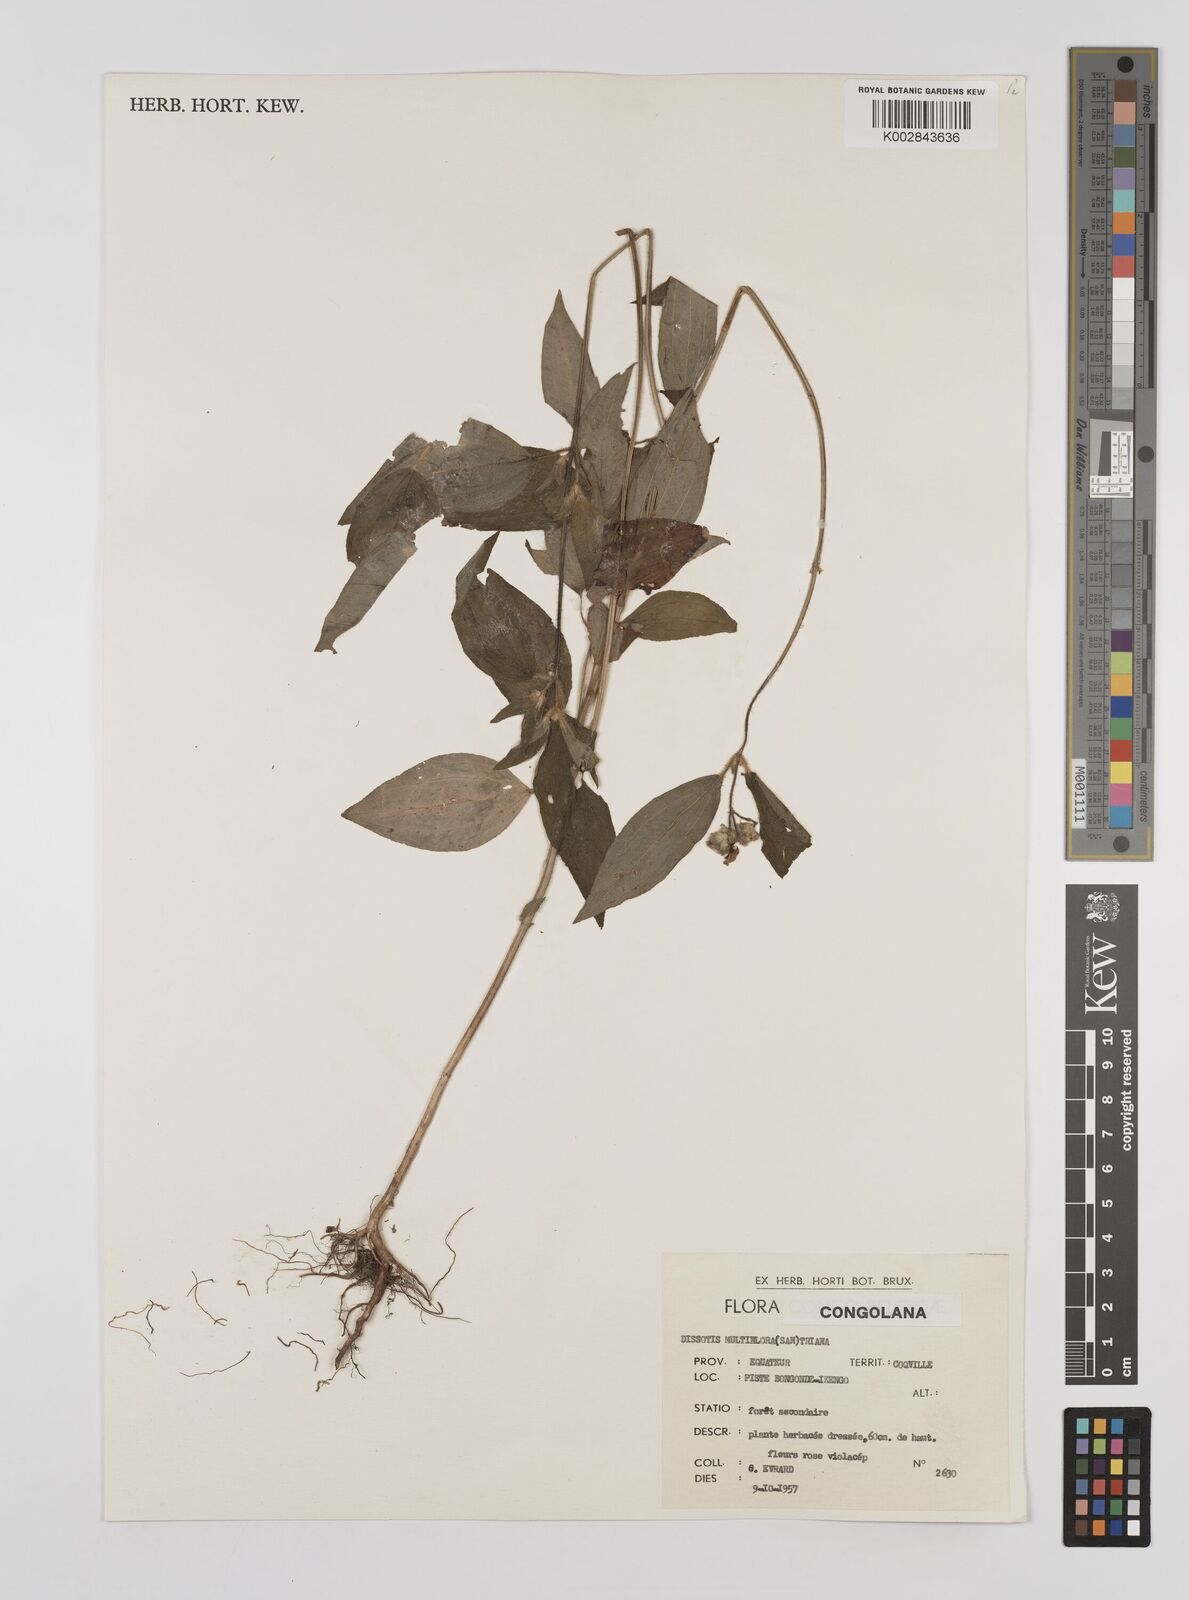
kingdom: Plantae
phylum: Tracheophyta
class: Magnoliopsida
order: Myrtales
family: Melastomataceae
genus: Dupineta
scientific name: Dupineta multiflora
